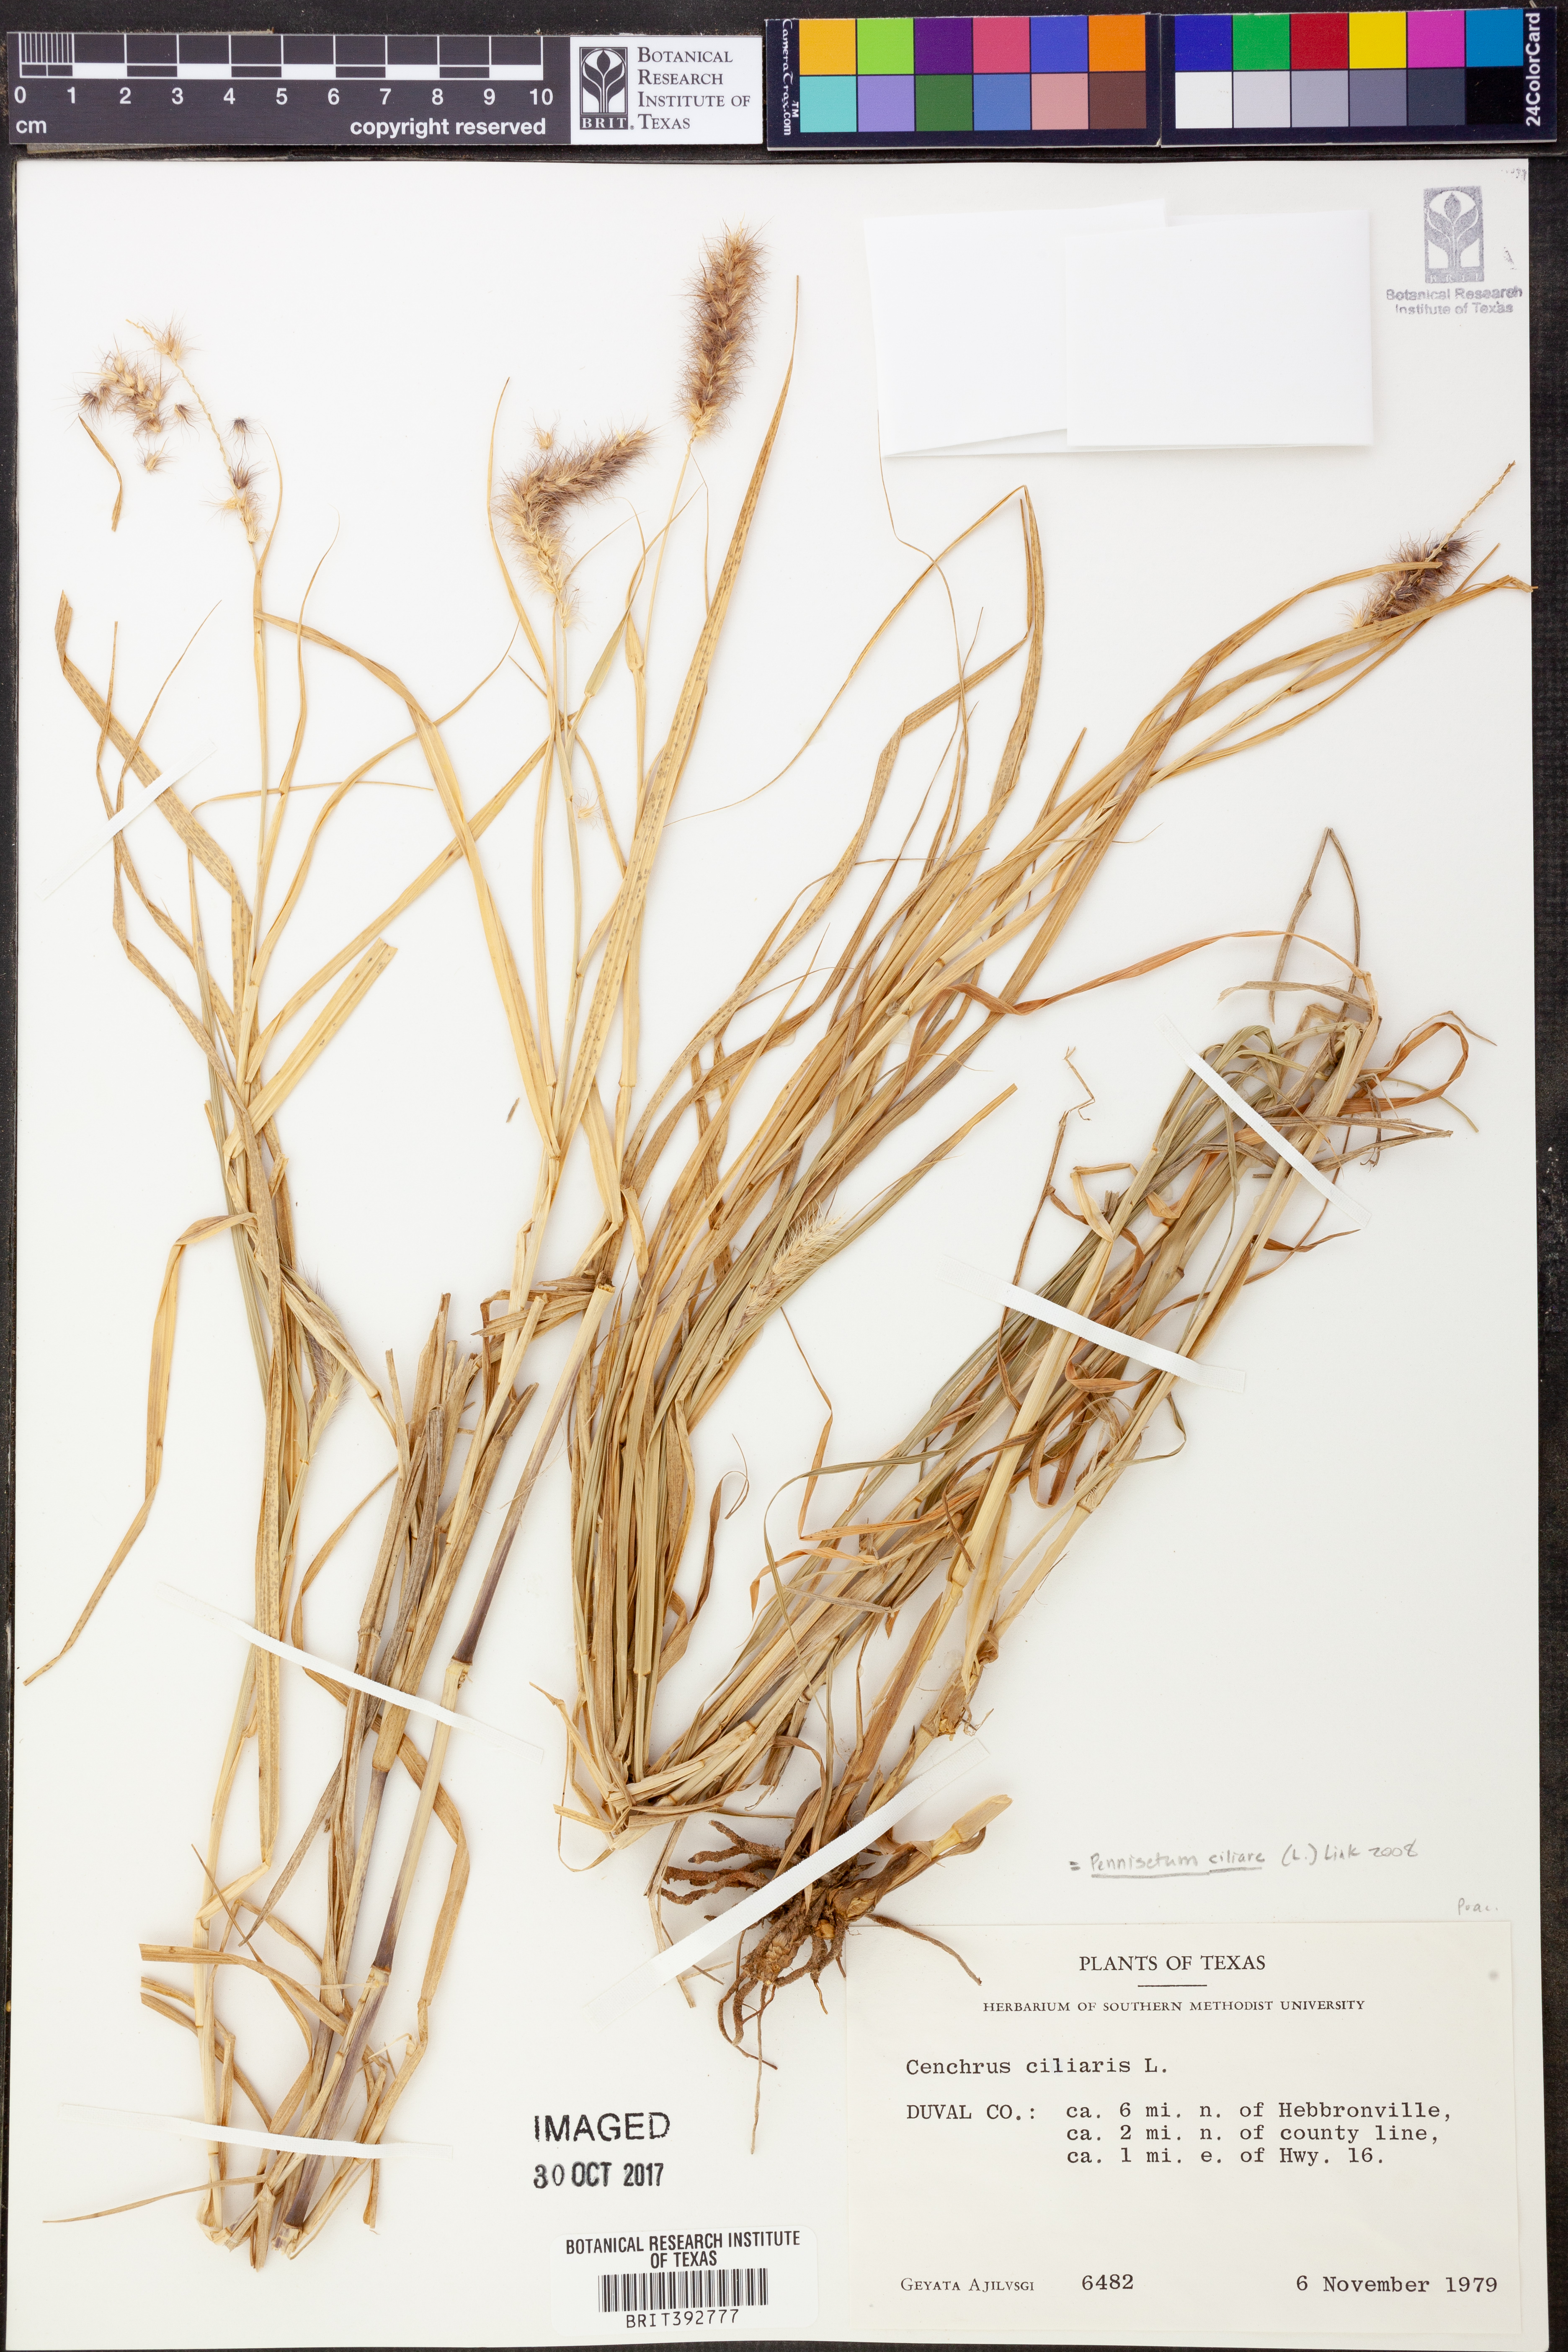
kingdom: Plantae
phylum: Tracheophyta
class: Liliopsida
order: Poales
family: Poaceae
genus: Cenchrus
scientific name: Cenchrus setosus
